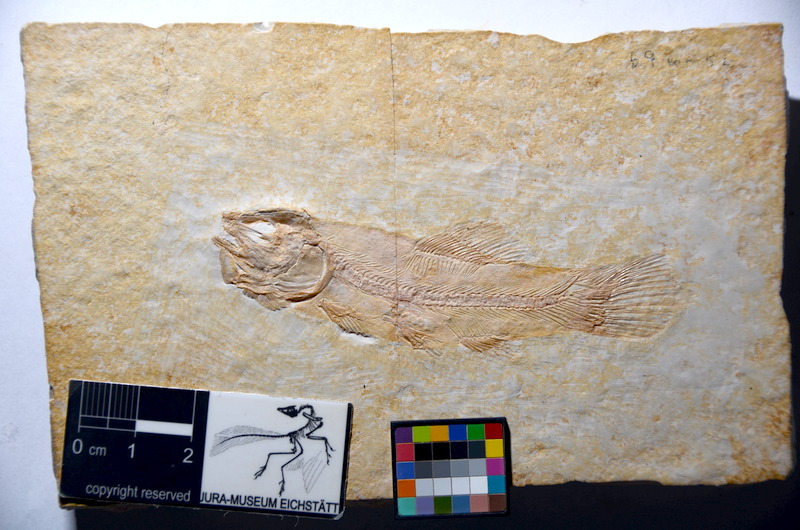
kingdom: Animalia
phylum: Chordata
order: Amiiformes
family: Amiidae
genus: Amiopsis
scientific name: Amiopsis lepidota
